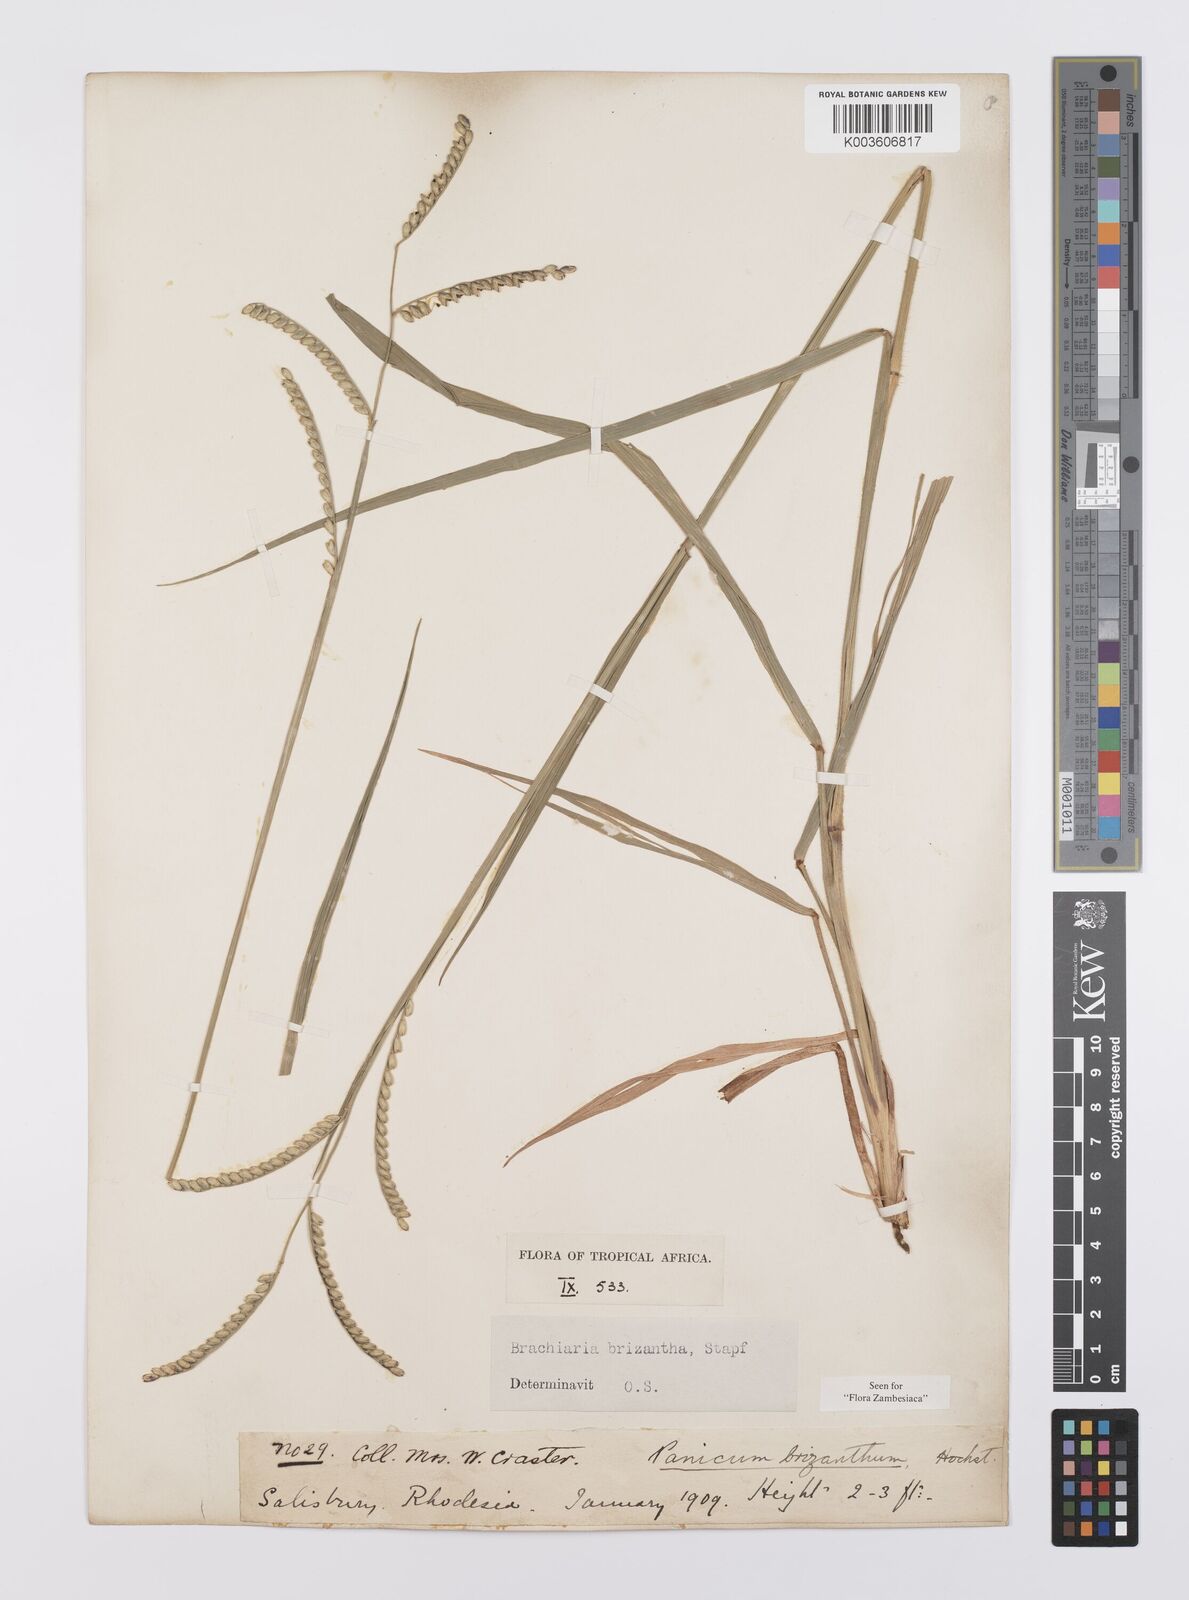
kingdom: Plantae
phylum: Tracheophyta
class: Liliopsida
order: Poales
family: Poaceae
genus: Urochloa
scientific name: Urochloa brizantha
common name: Palisade signalgrass
